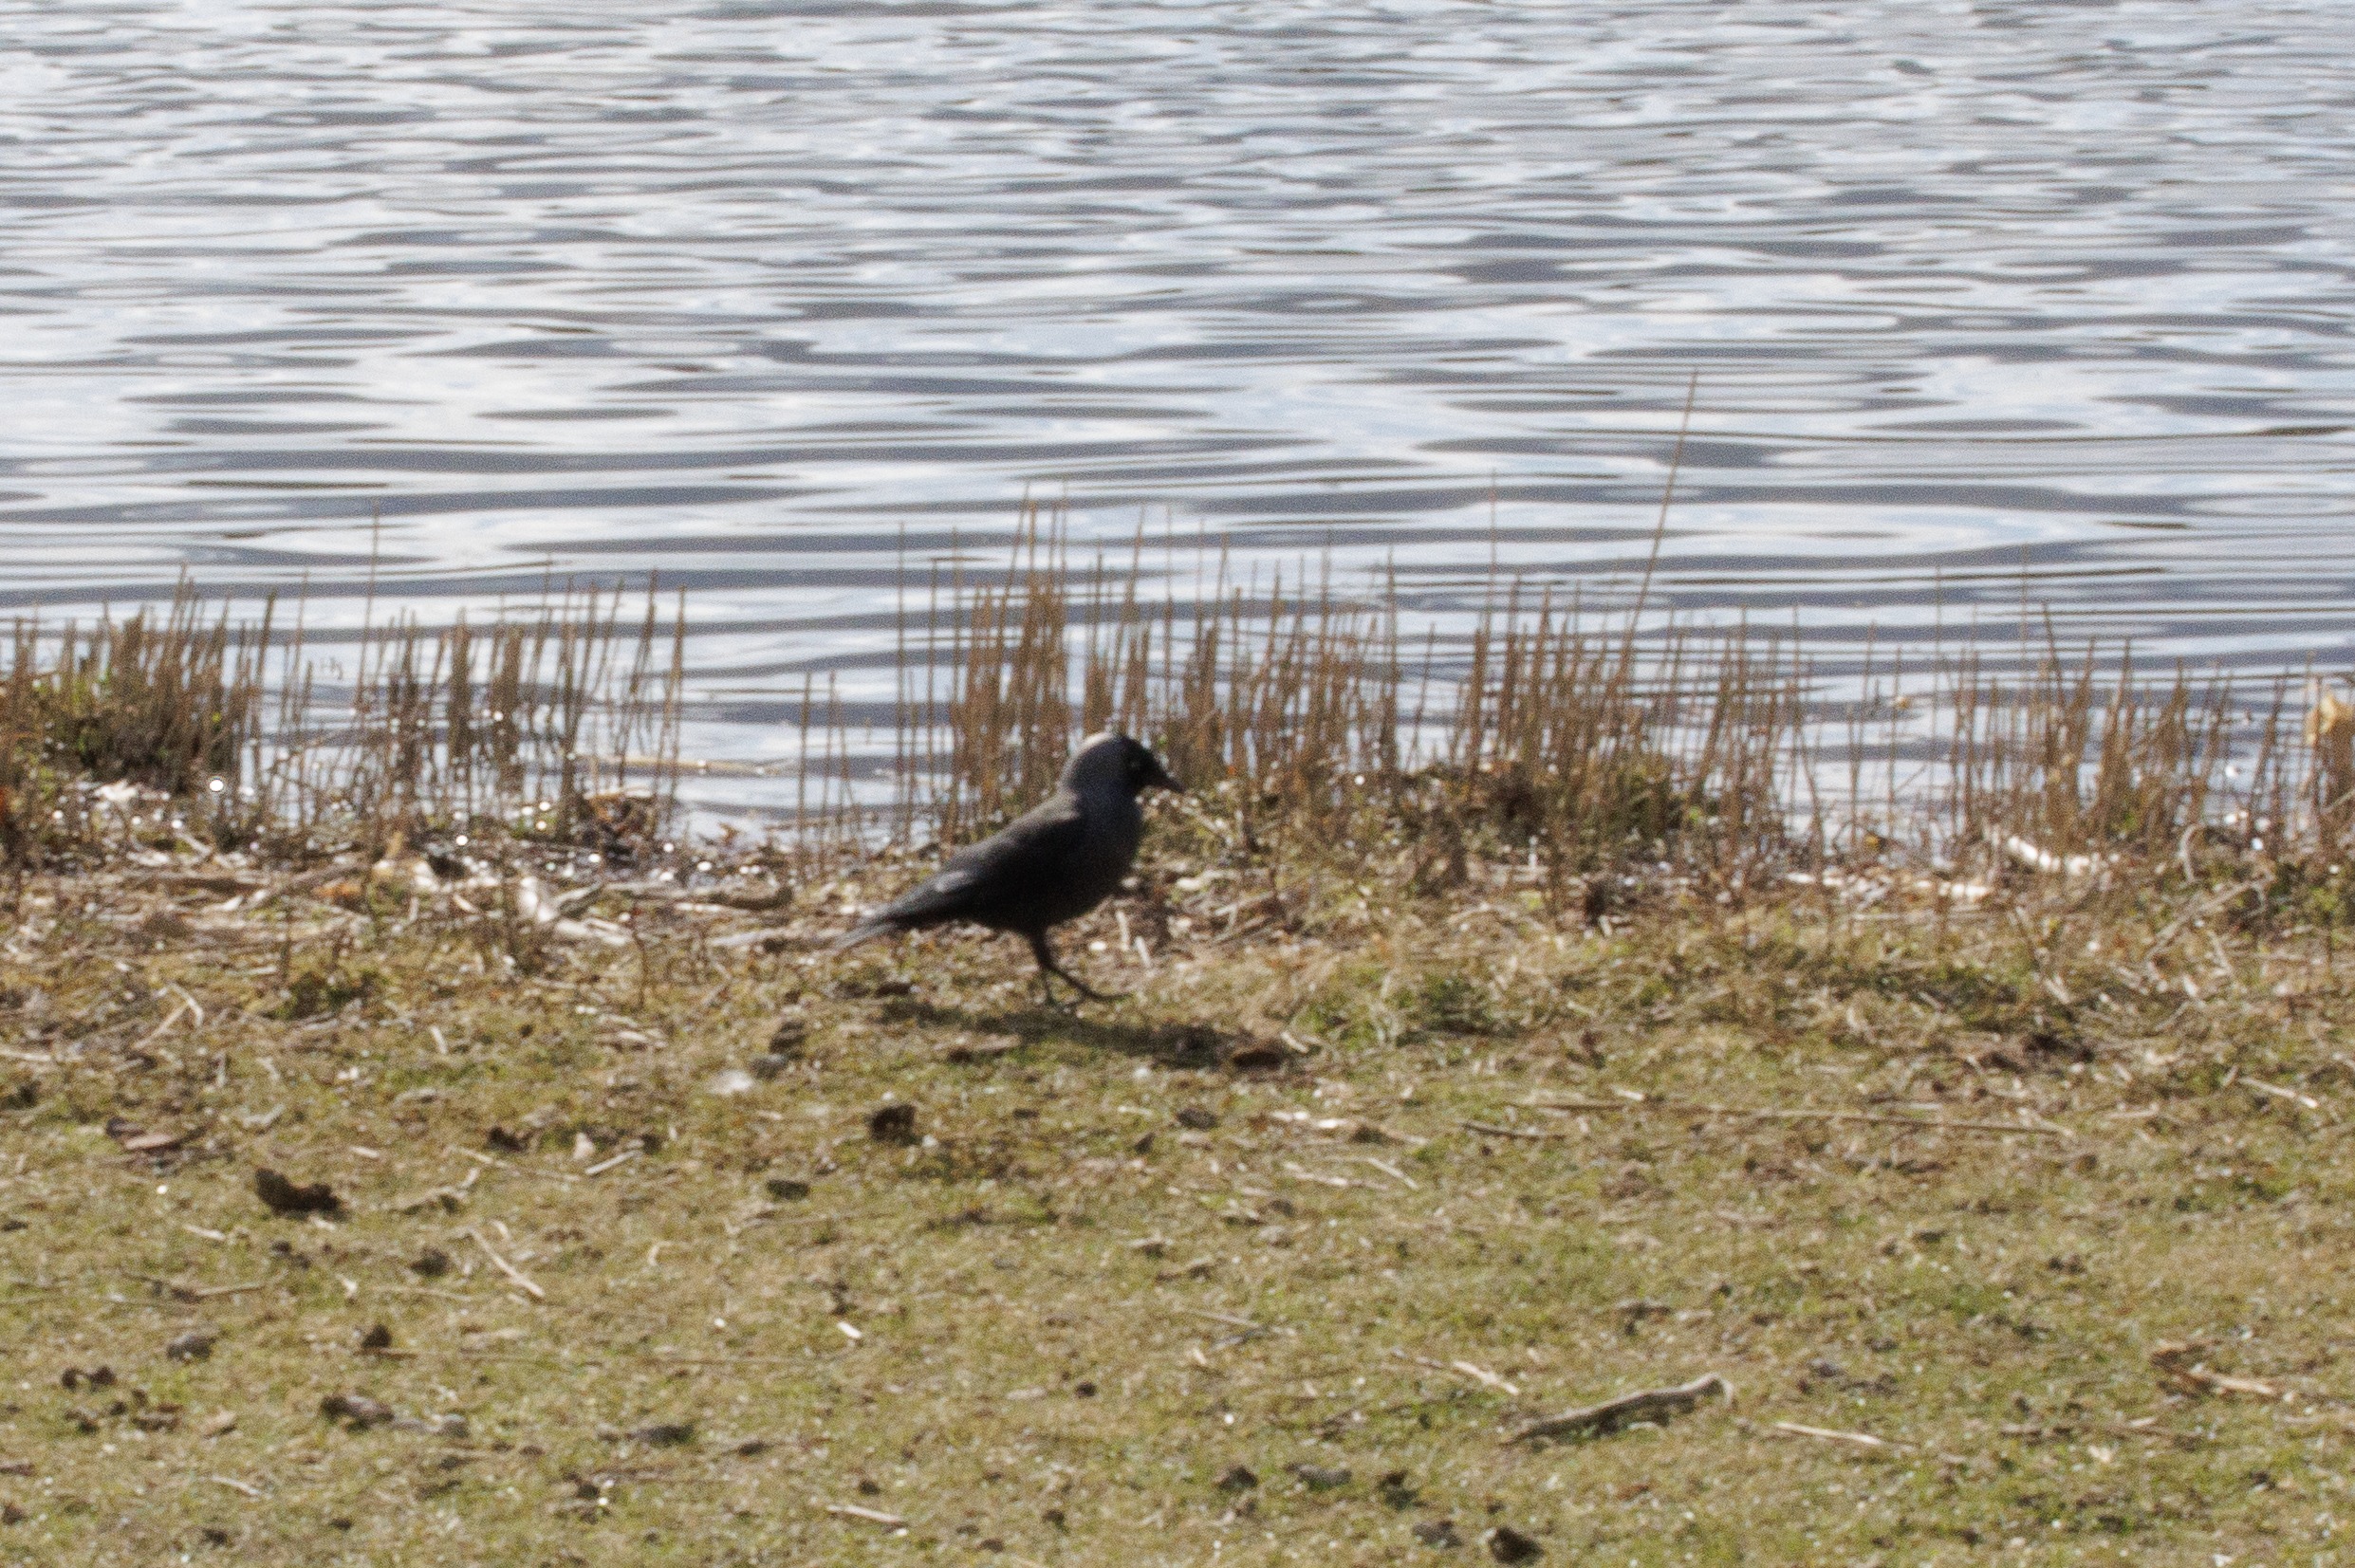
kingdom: Animalia
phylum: Chordata
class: Aves
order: Passeriformes
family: Corvidae
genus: Coloeus
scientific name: Coloeus monedula
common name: Allike
